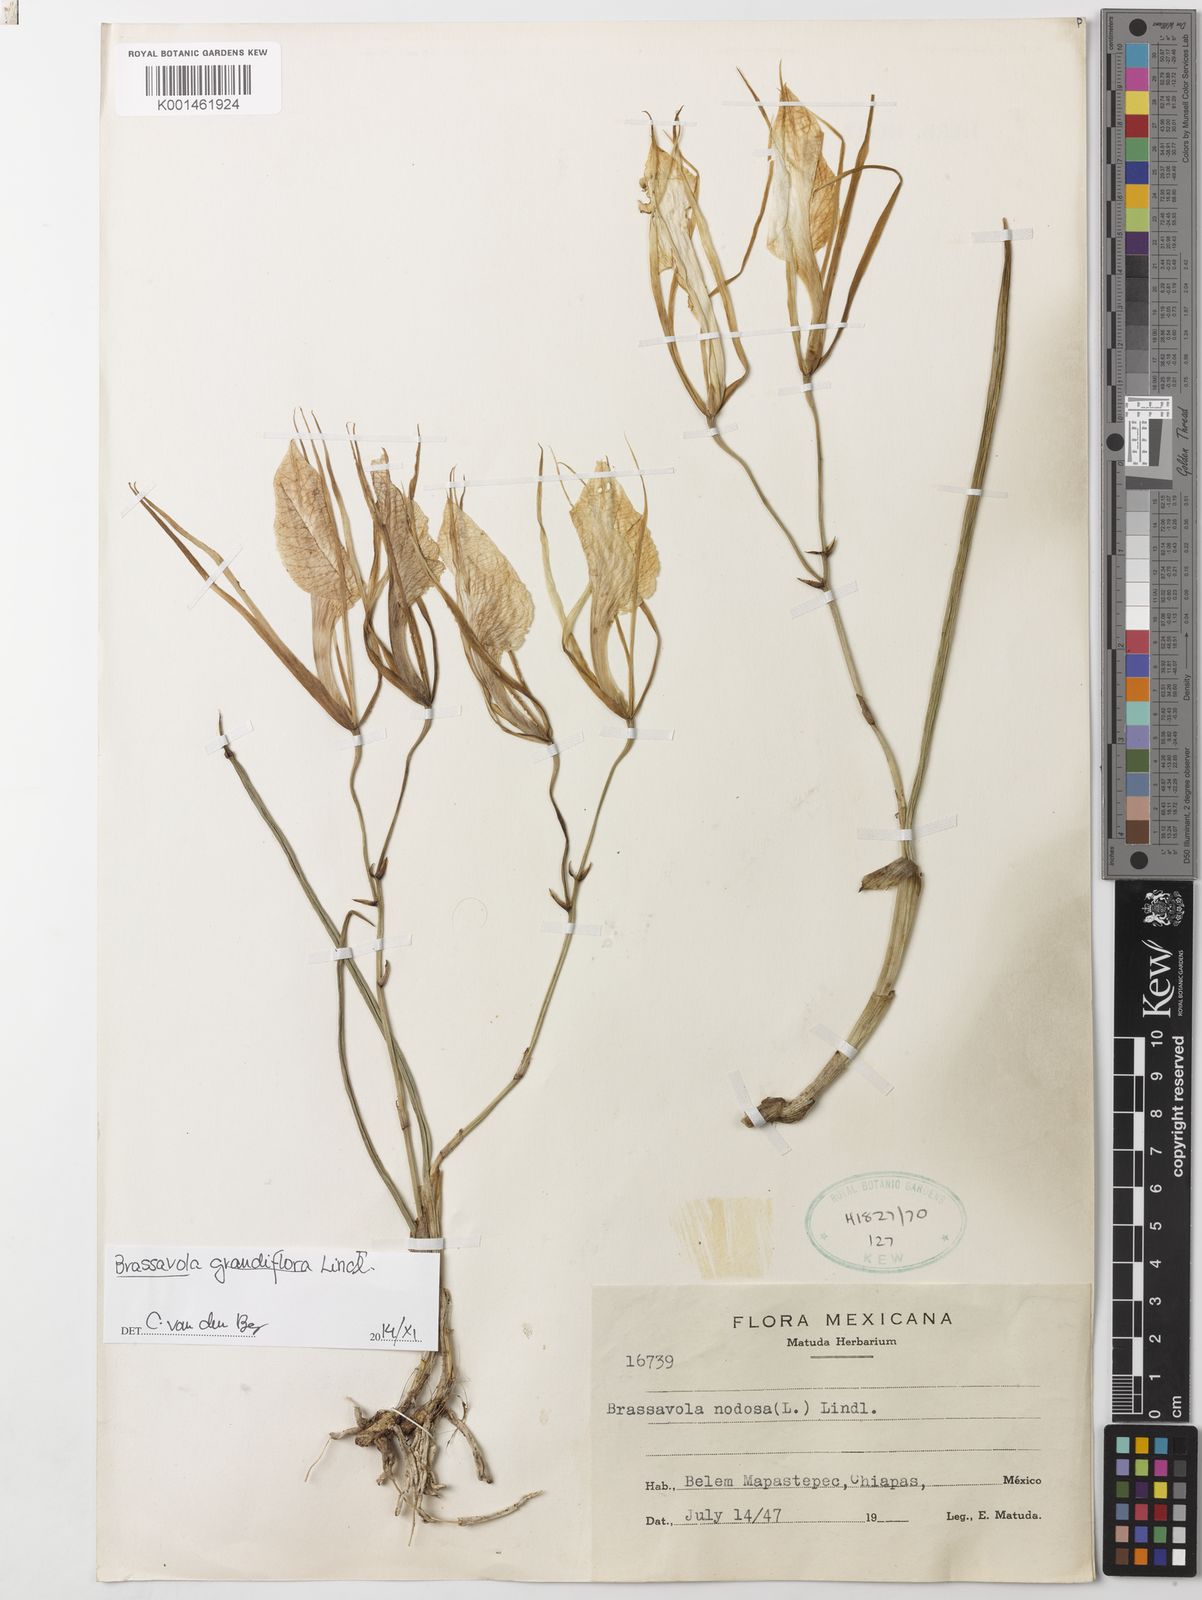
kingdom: Plantae
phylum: Tracheophyta
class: Liliopsida
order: Asparagales
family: Orchidaceae
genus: Brassavola
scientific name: Brassavola nodosa
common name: Lady of the night
